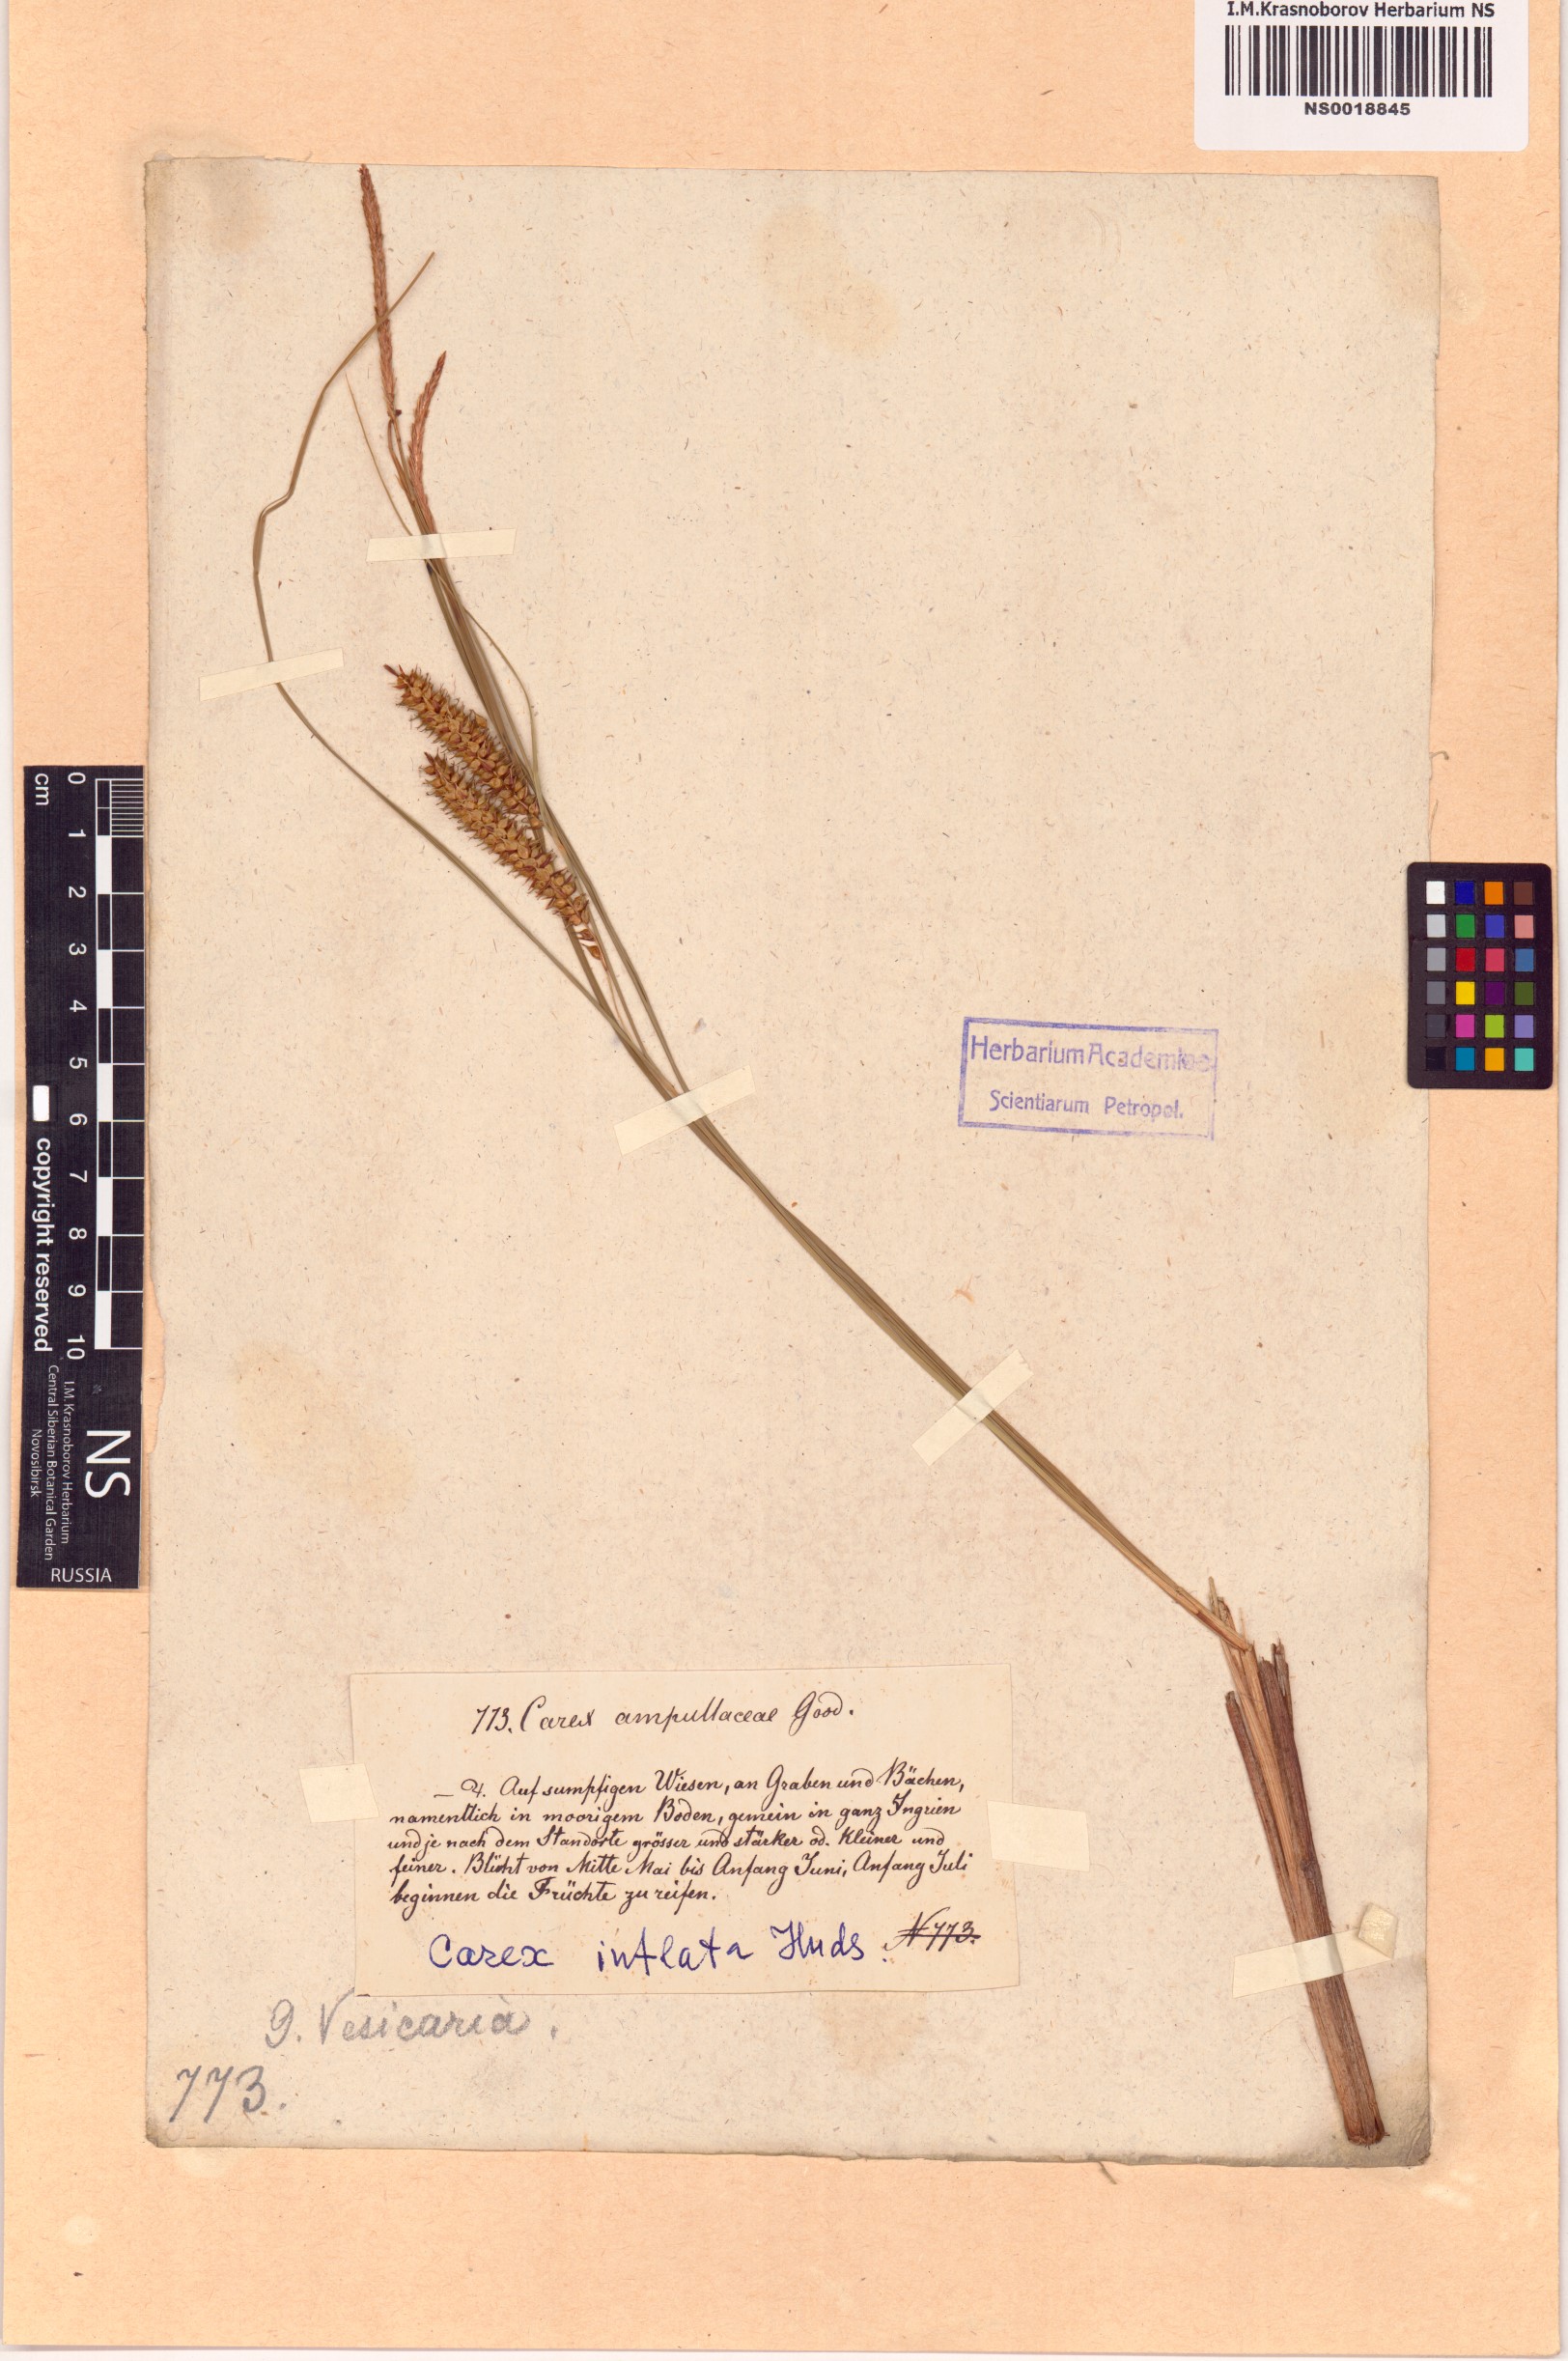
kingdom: Plantae
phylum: Tracheophyta
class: Liliopsida
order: Poales
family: Cyperaceae
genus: Carex
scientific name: Carex rostrata
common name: Bottle sedge
